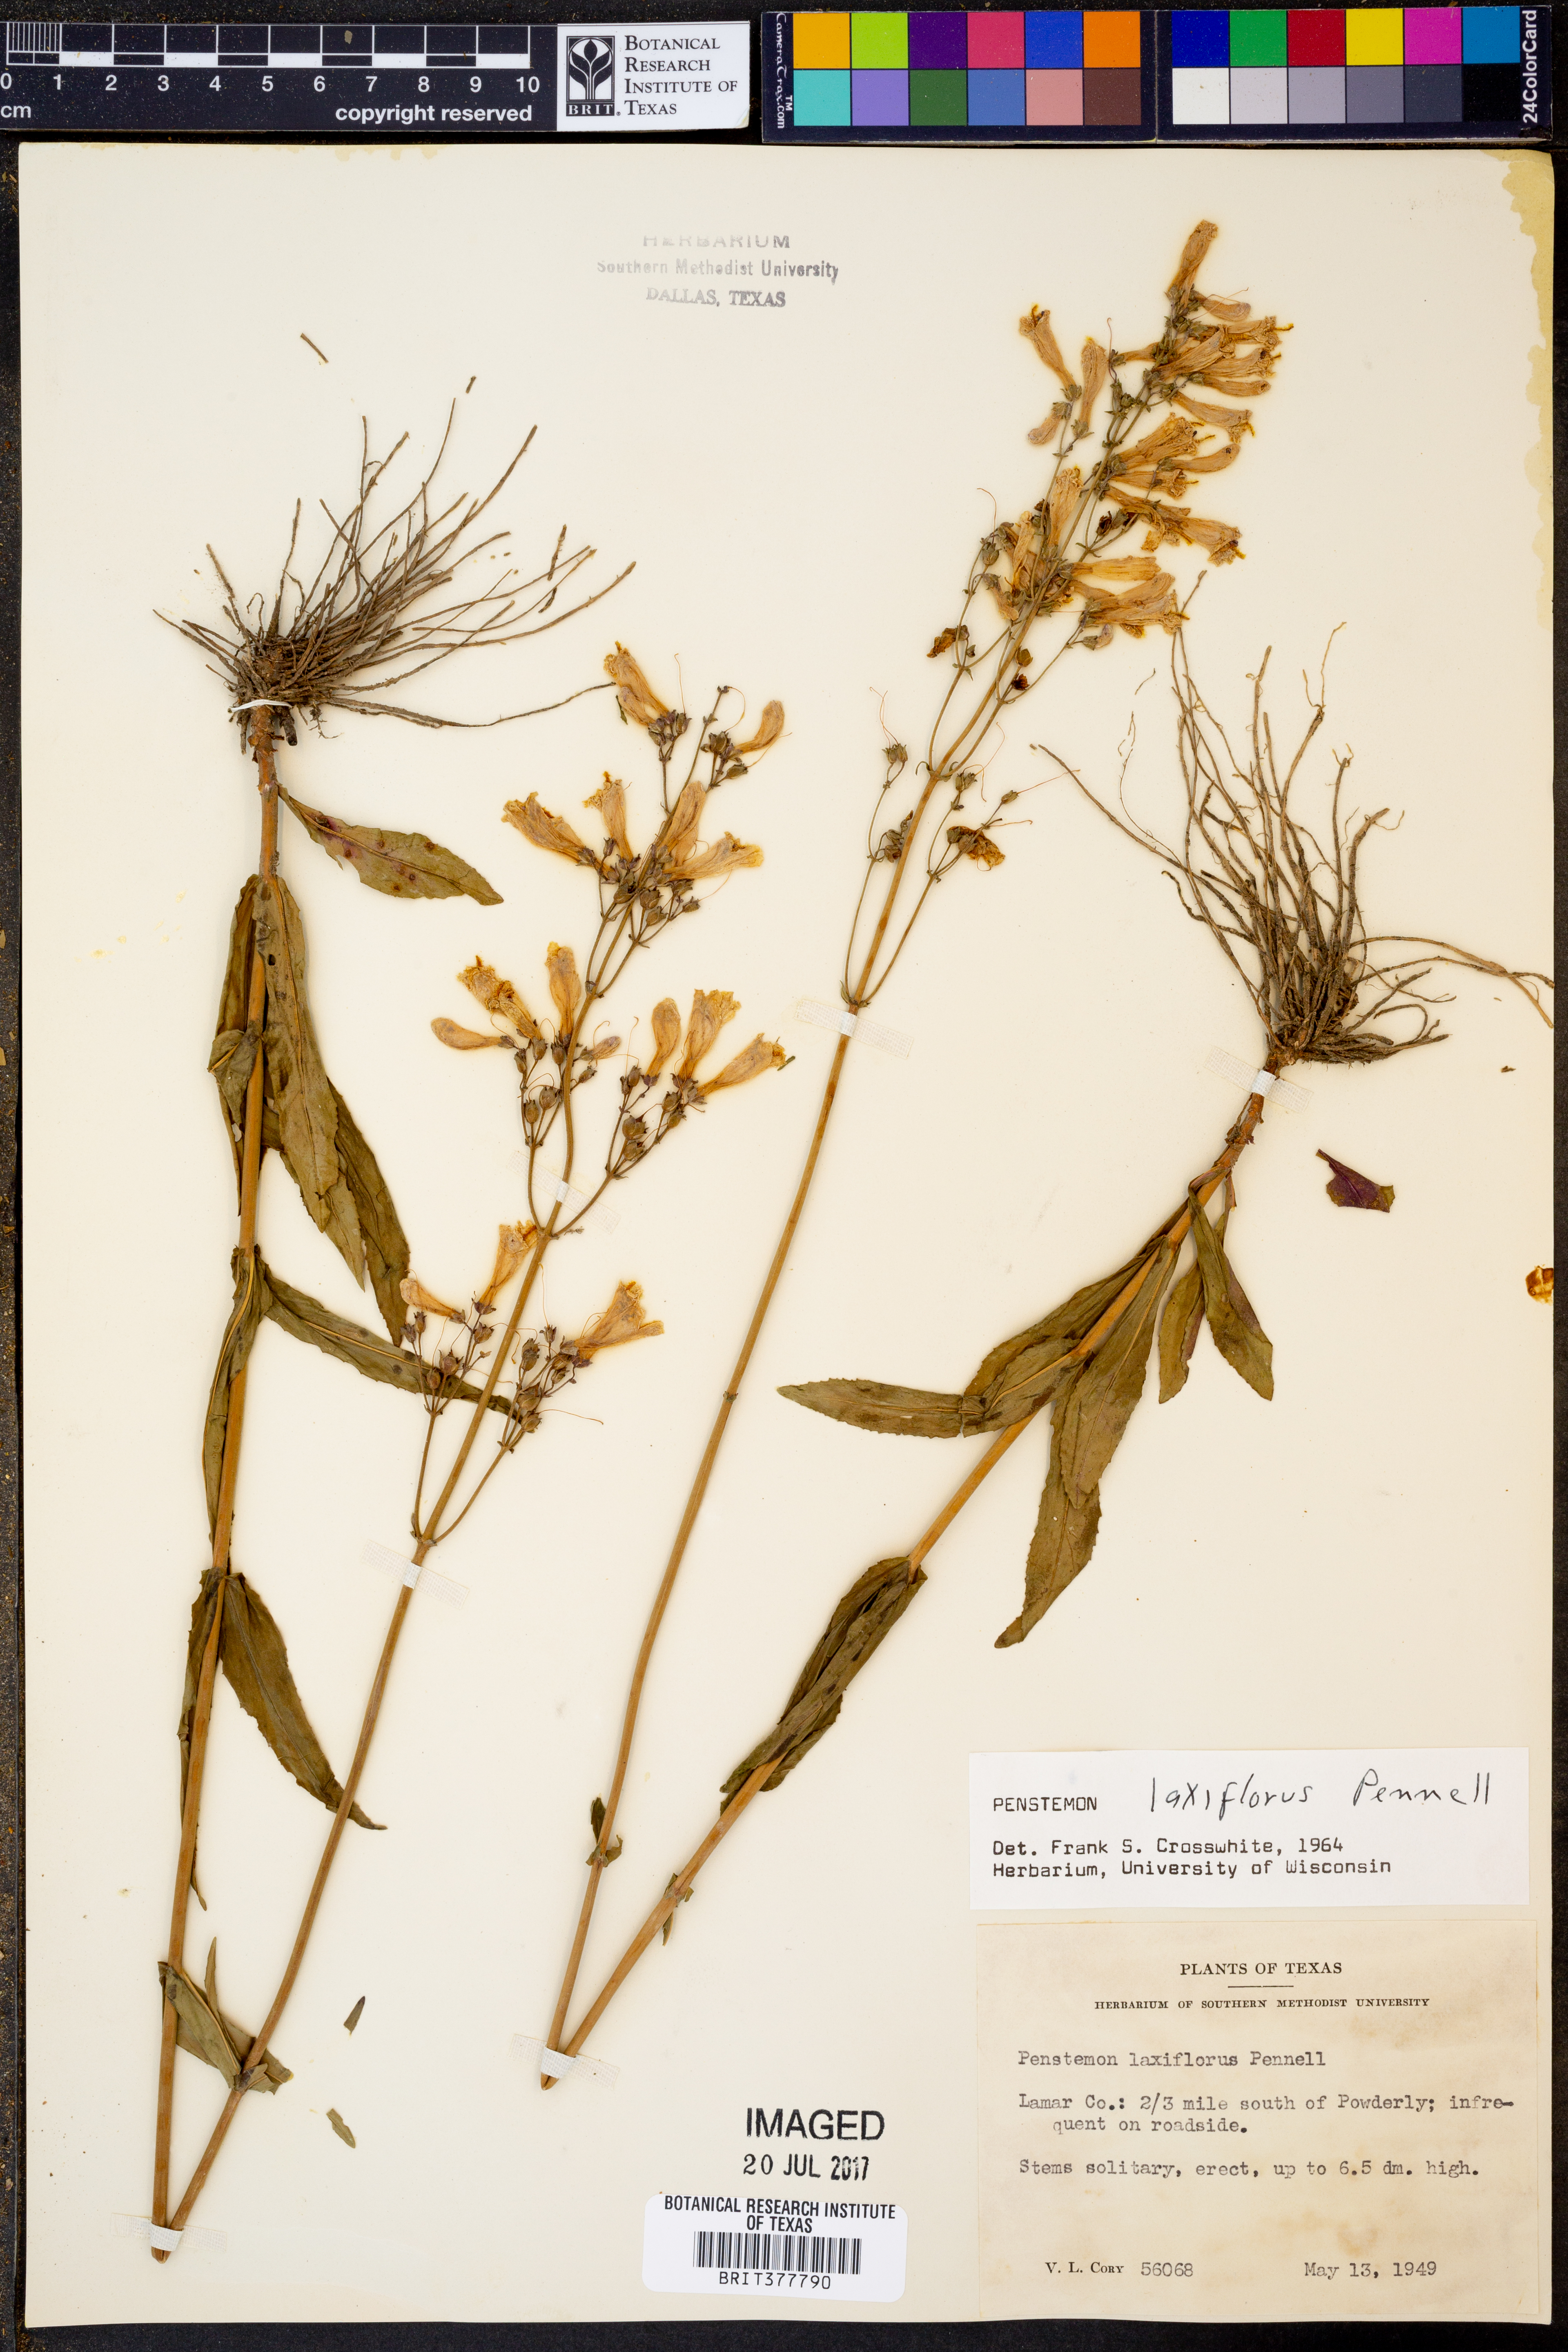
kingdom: Plantae
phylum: Tracheophyta
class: Magnoliopsida
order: Lamiales
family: Plantaginaceae
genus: Penstemon
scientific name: Penstemon laxiflorus
